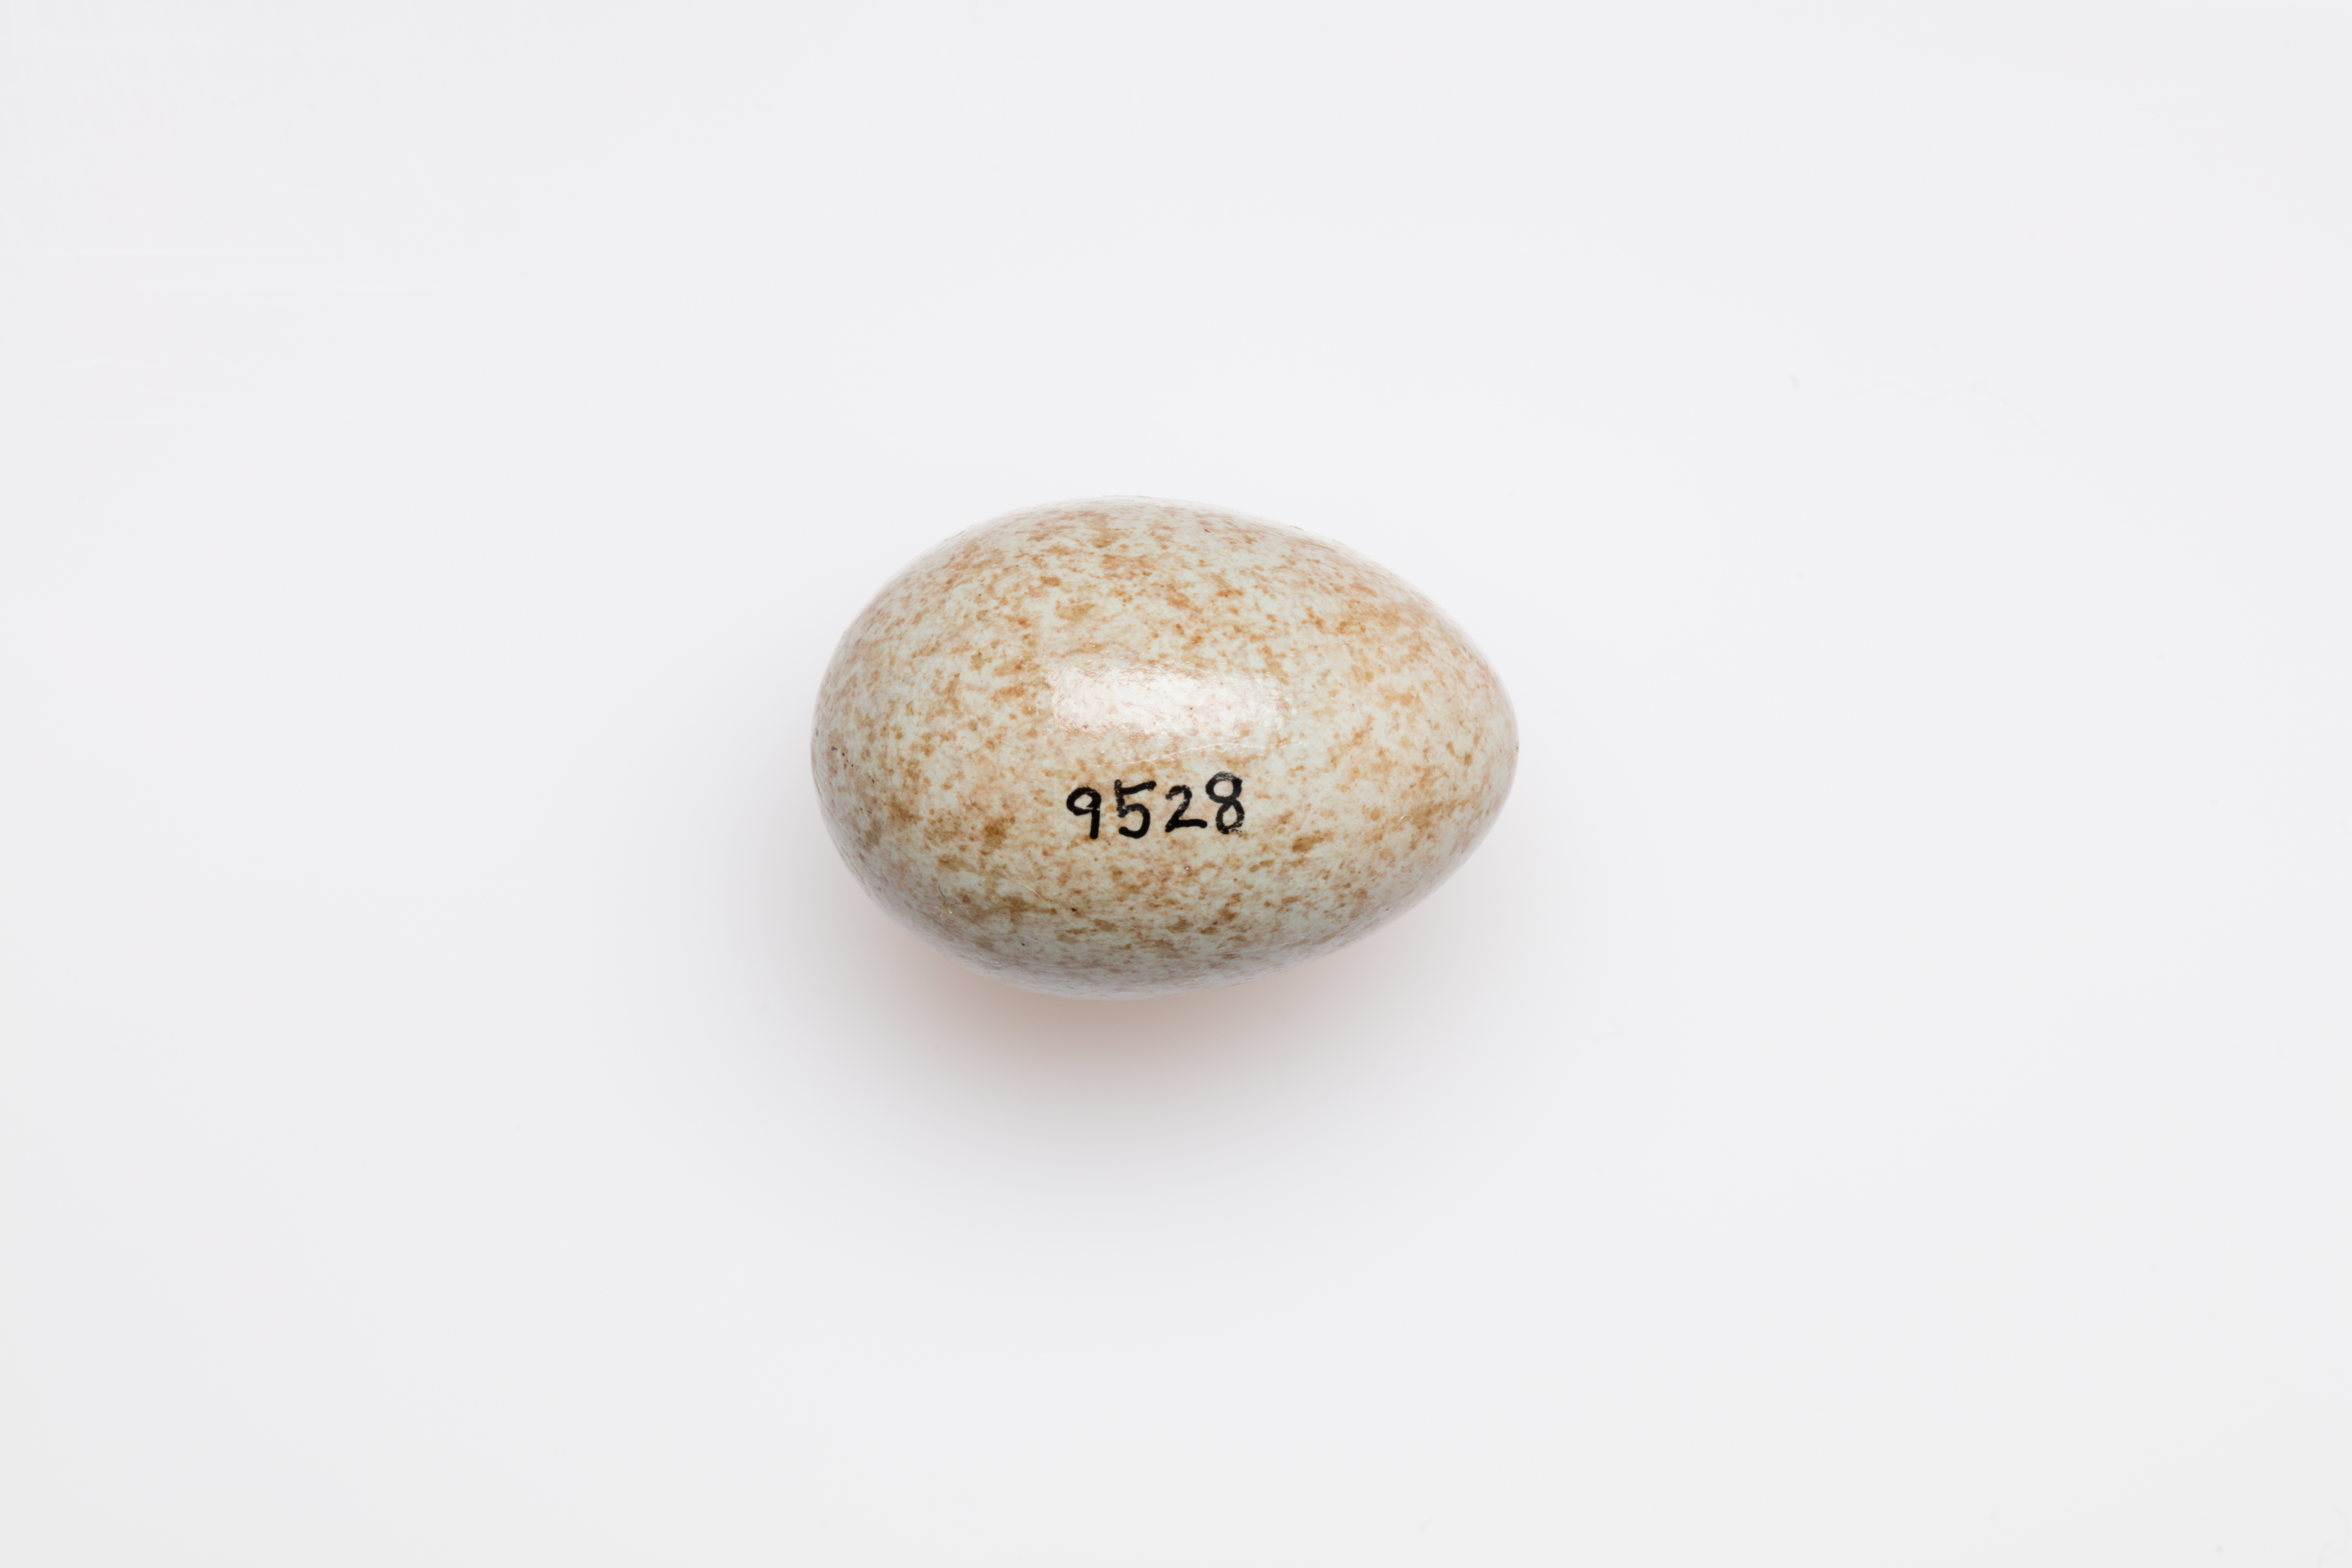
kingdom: Animalia
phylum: Chordata
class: Aves
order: Passeriformes
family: Turdidae
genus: Turdus
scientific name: Turdus merula
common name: Common blackbird
